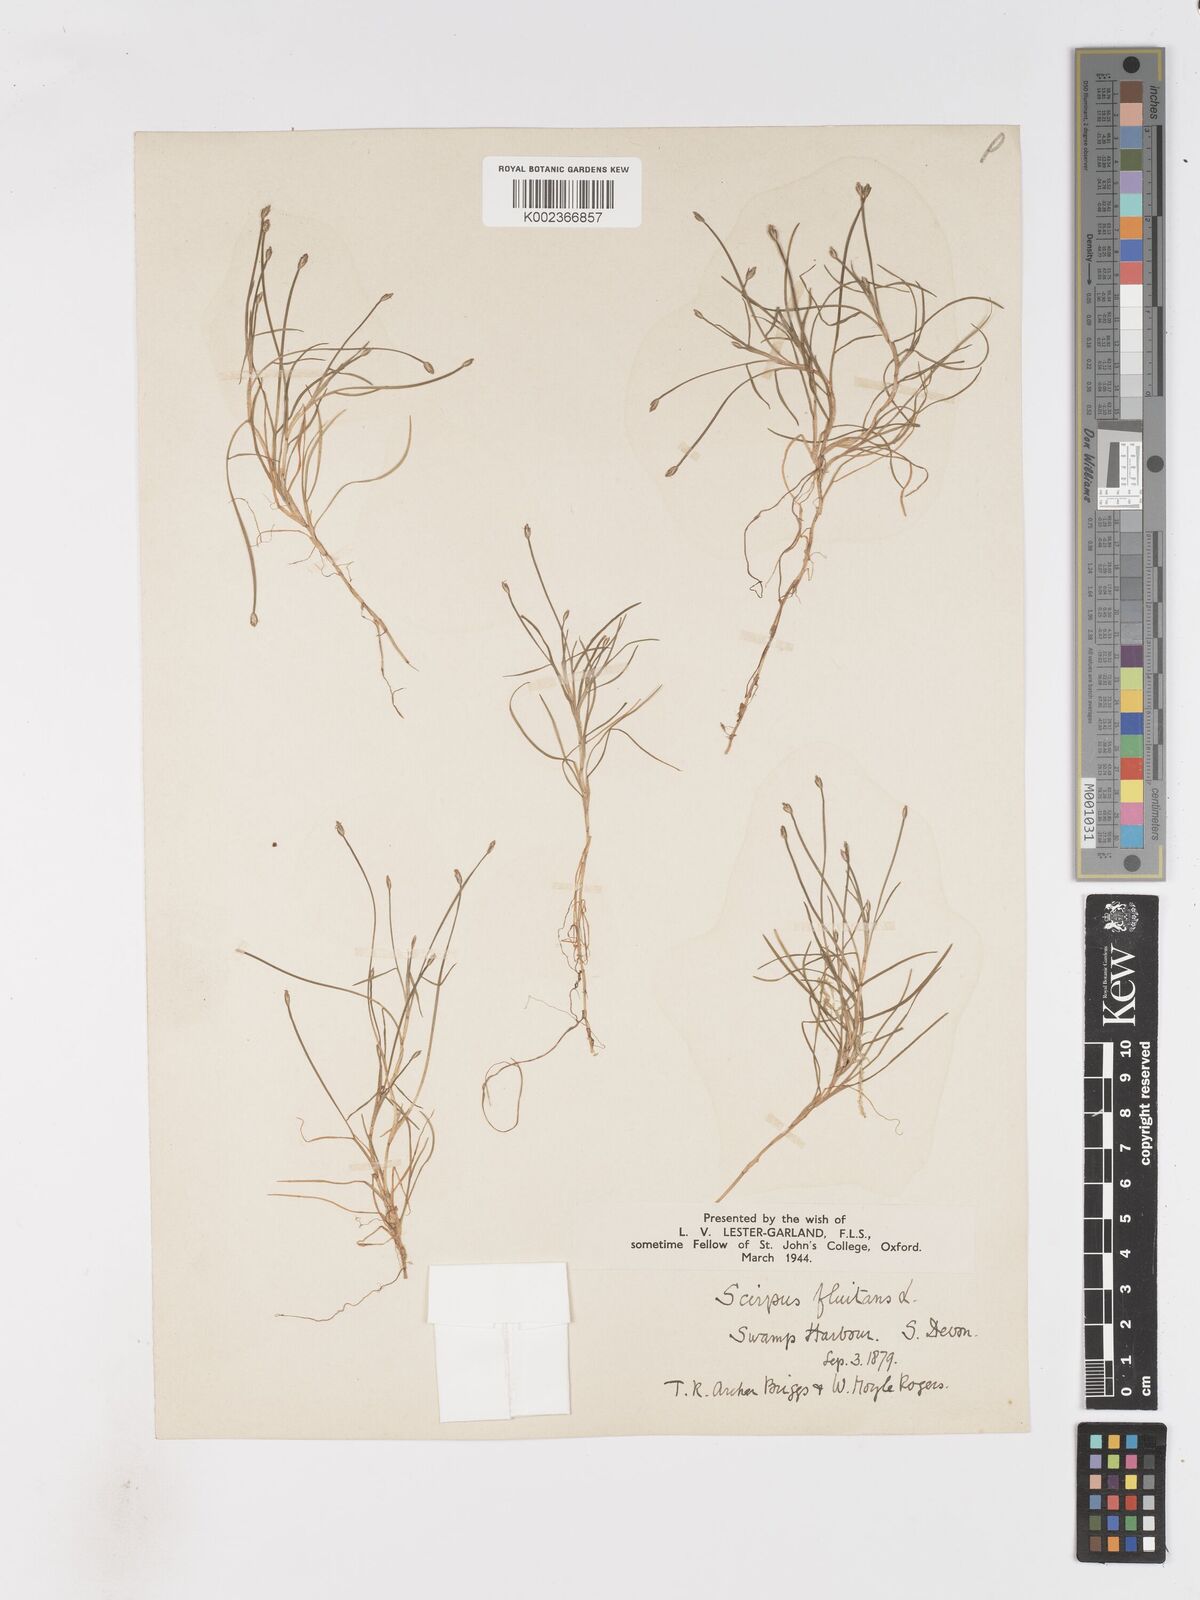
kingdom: Plantae
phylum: Tracheophyta
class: Liliopsida
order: Poales
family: Cyperaceae
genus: Isolepis
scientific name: Isolepis fluitans
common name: Floating club-rush
